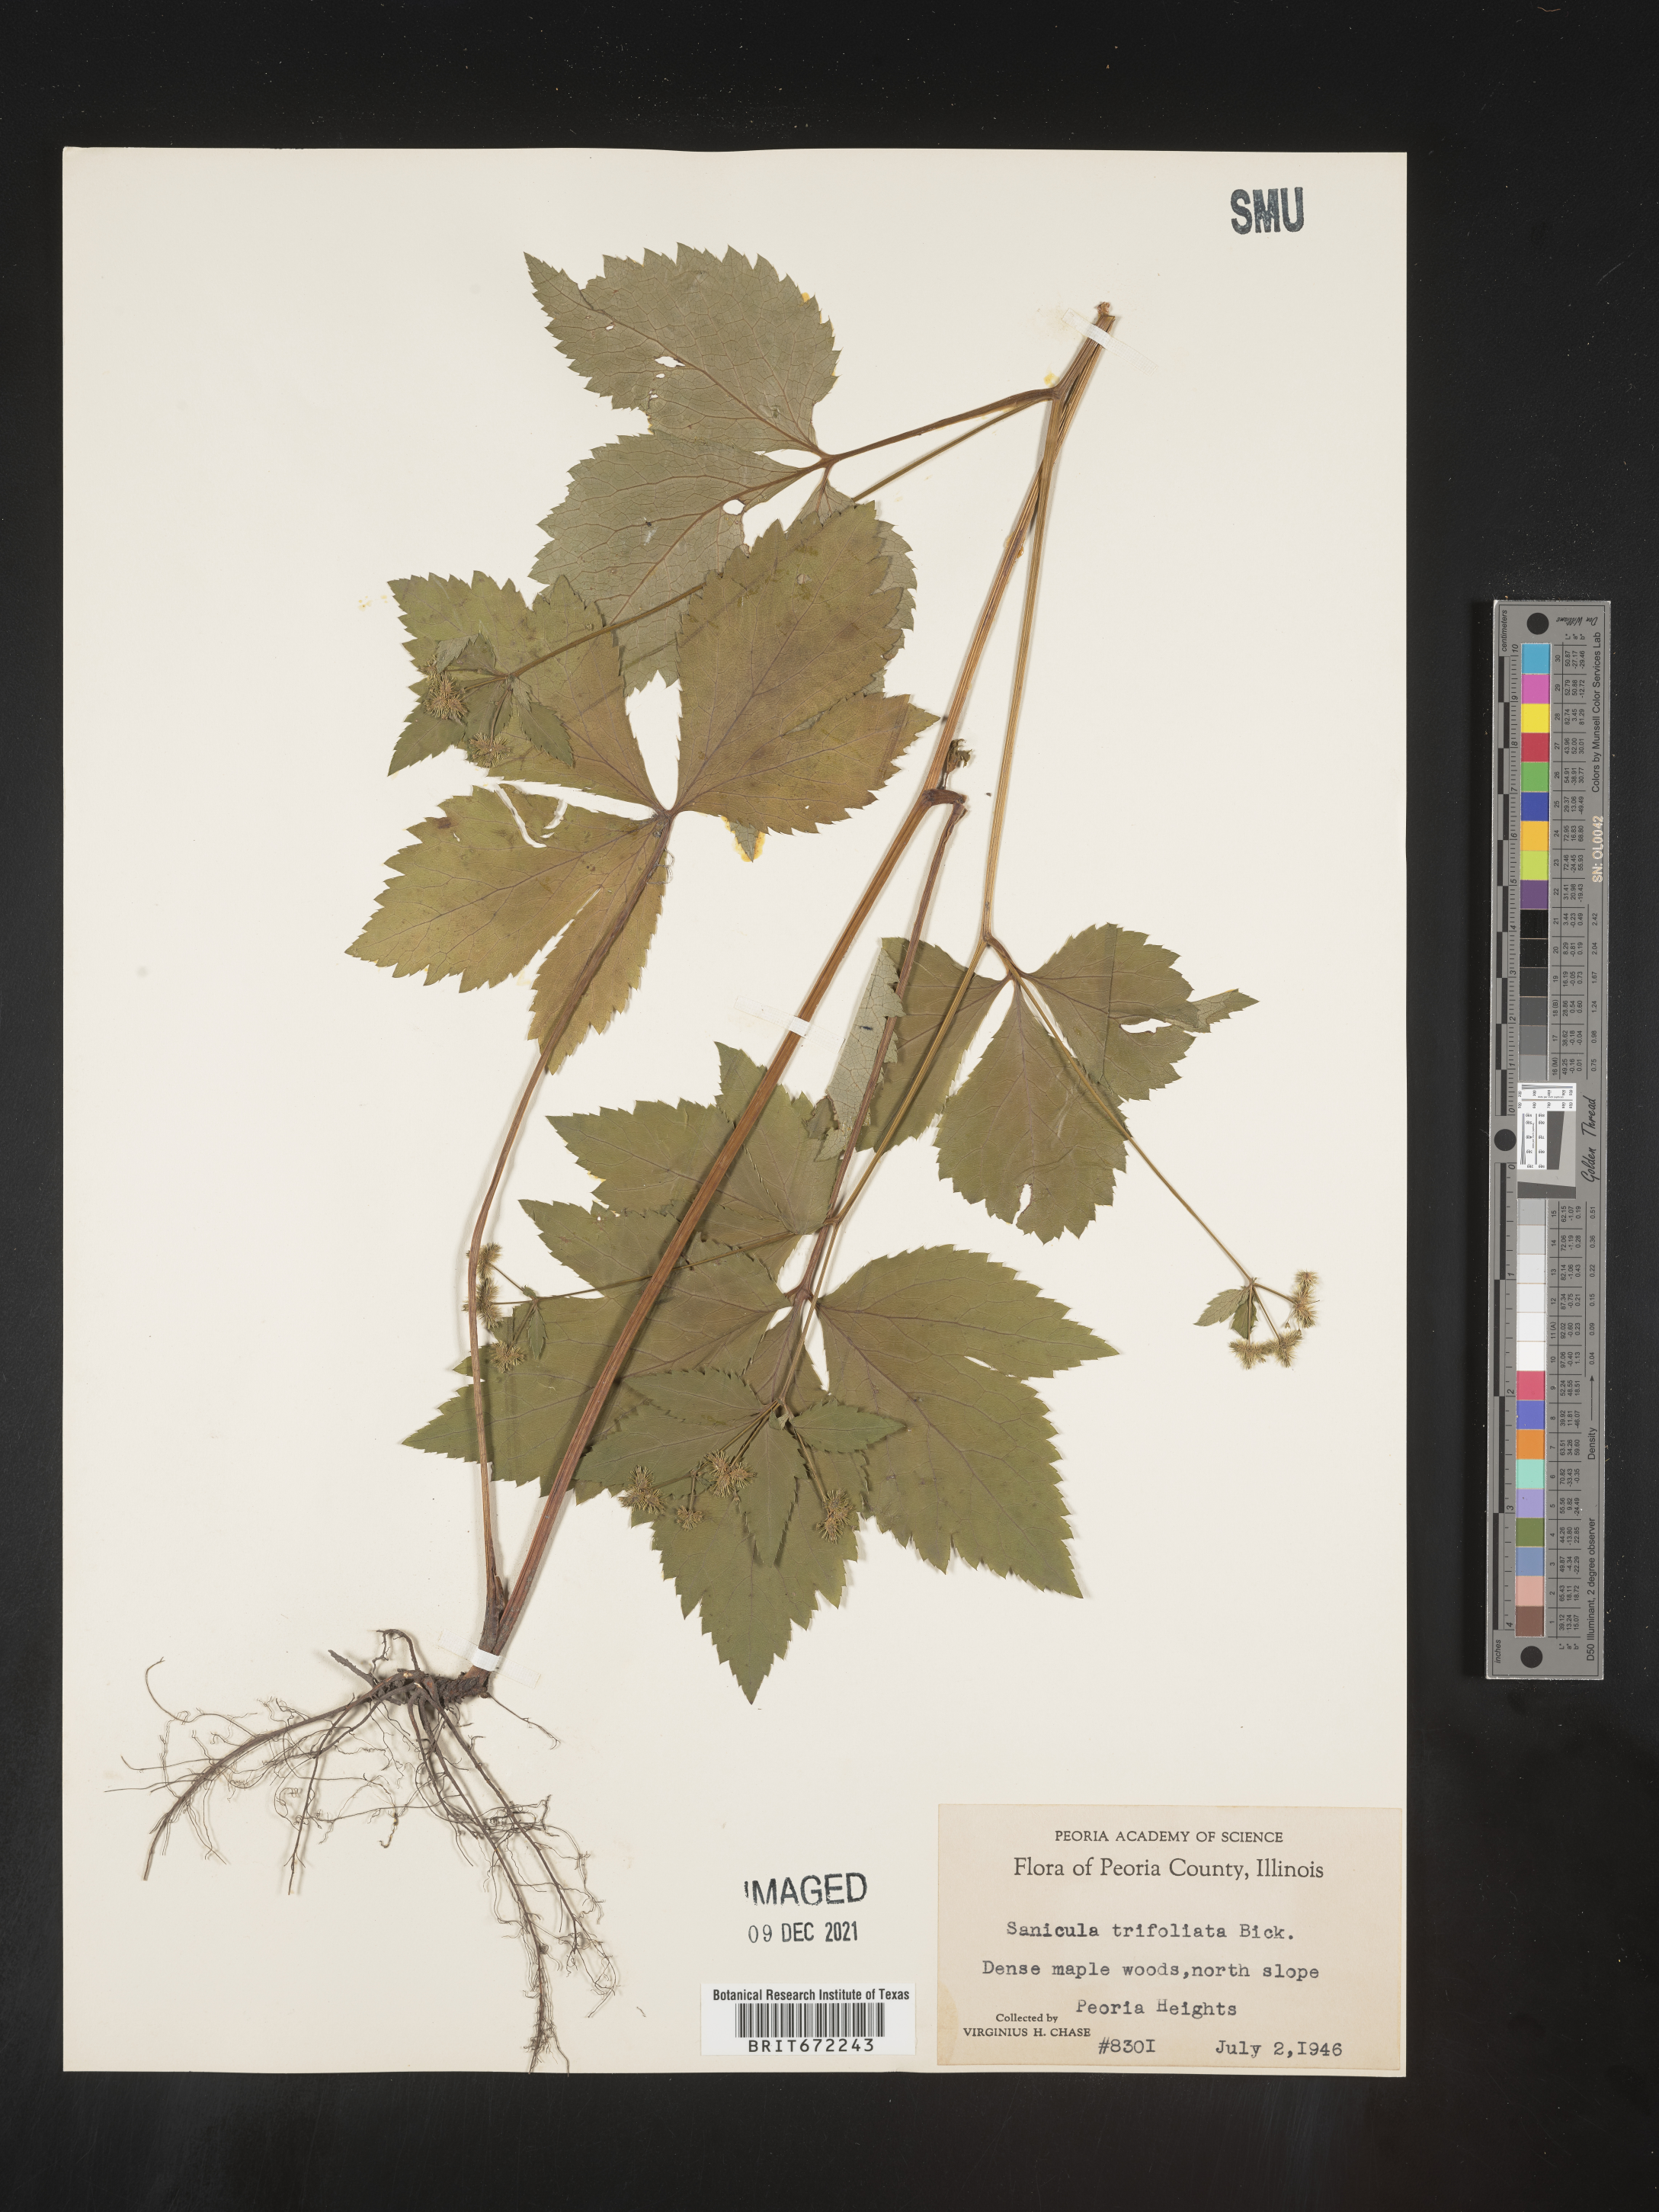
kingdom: Plantae
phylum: Tracheophyta
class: Magnoliopsida
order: Apiales
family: Apiaceae
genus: Sanicula
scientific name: Sanicula
